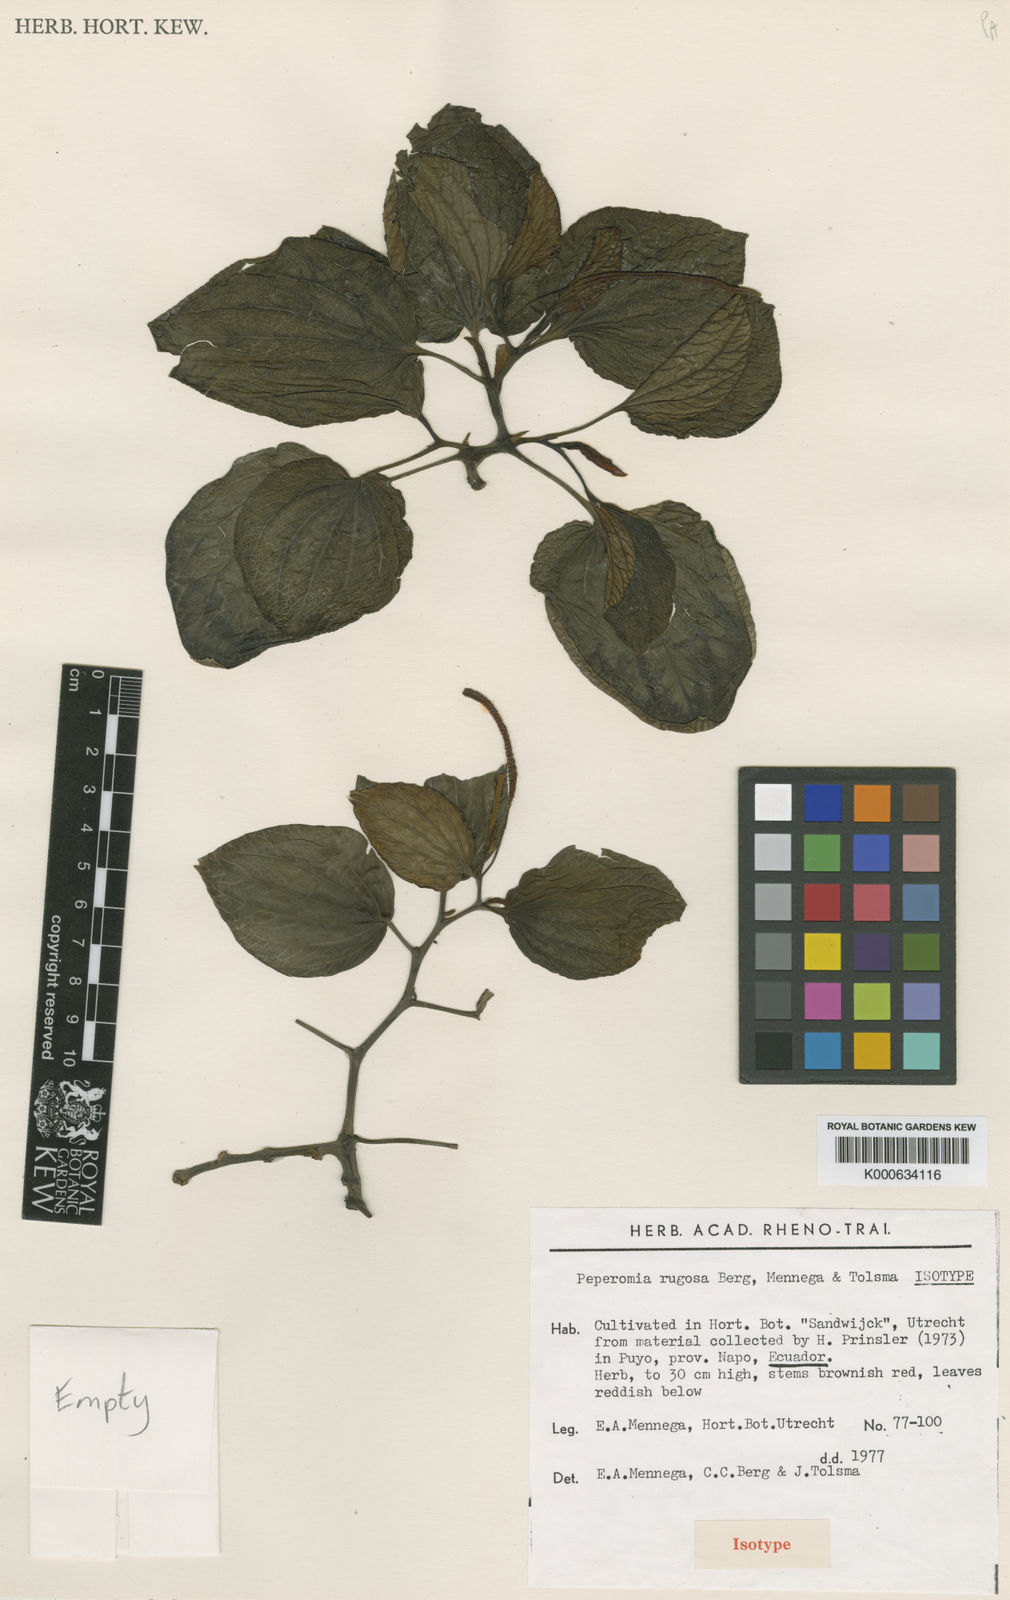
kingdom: Plantae
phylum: Tracheophyta
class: Magnoliopsida
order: Piperales
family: Piperaceae
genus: Peperomia
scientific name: Peperomia rugosa
